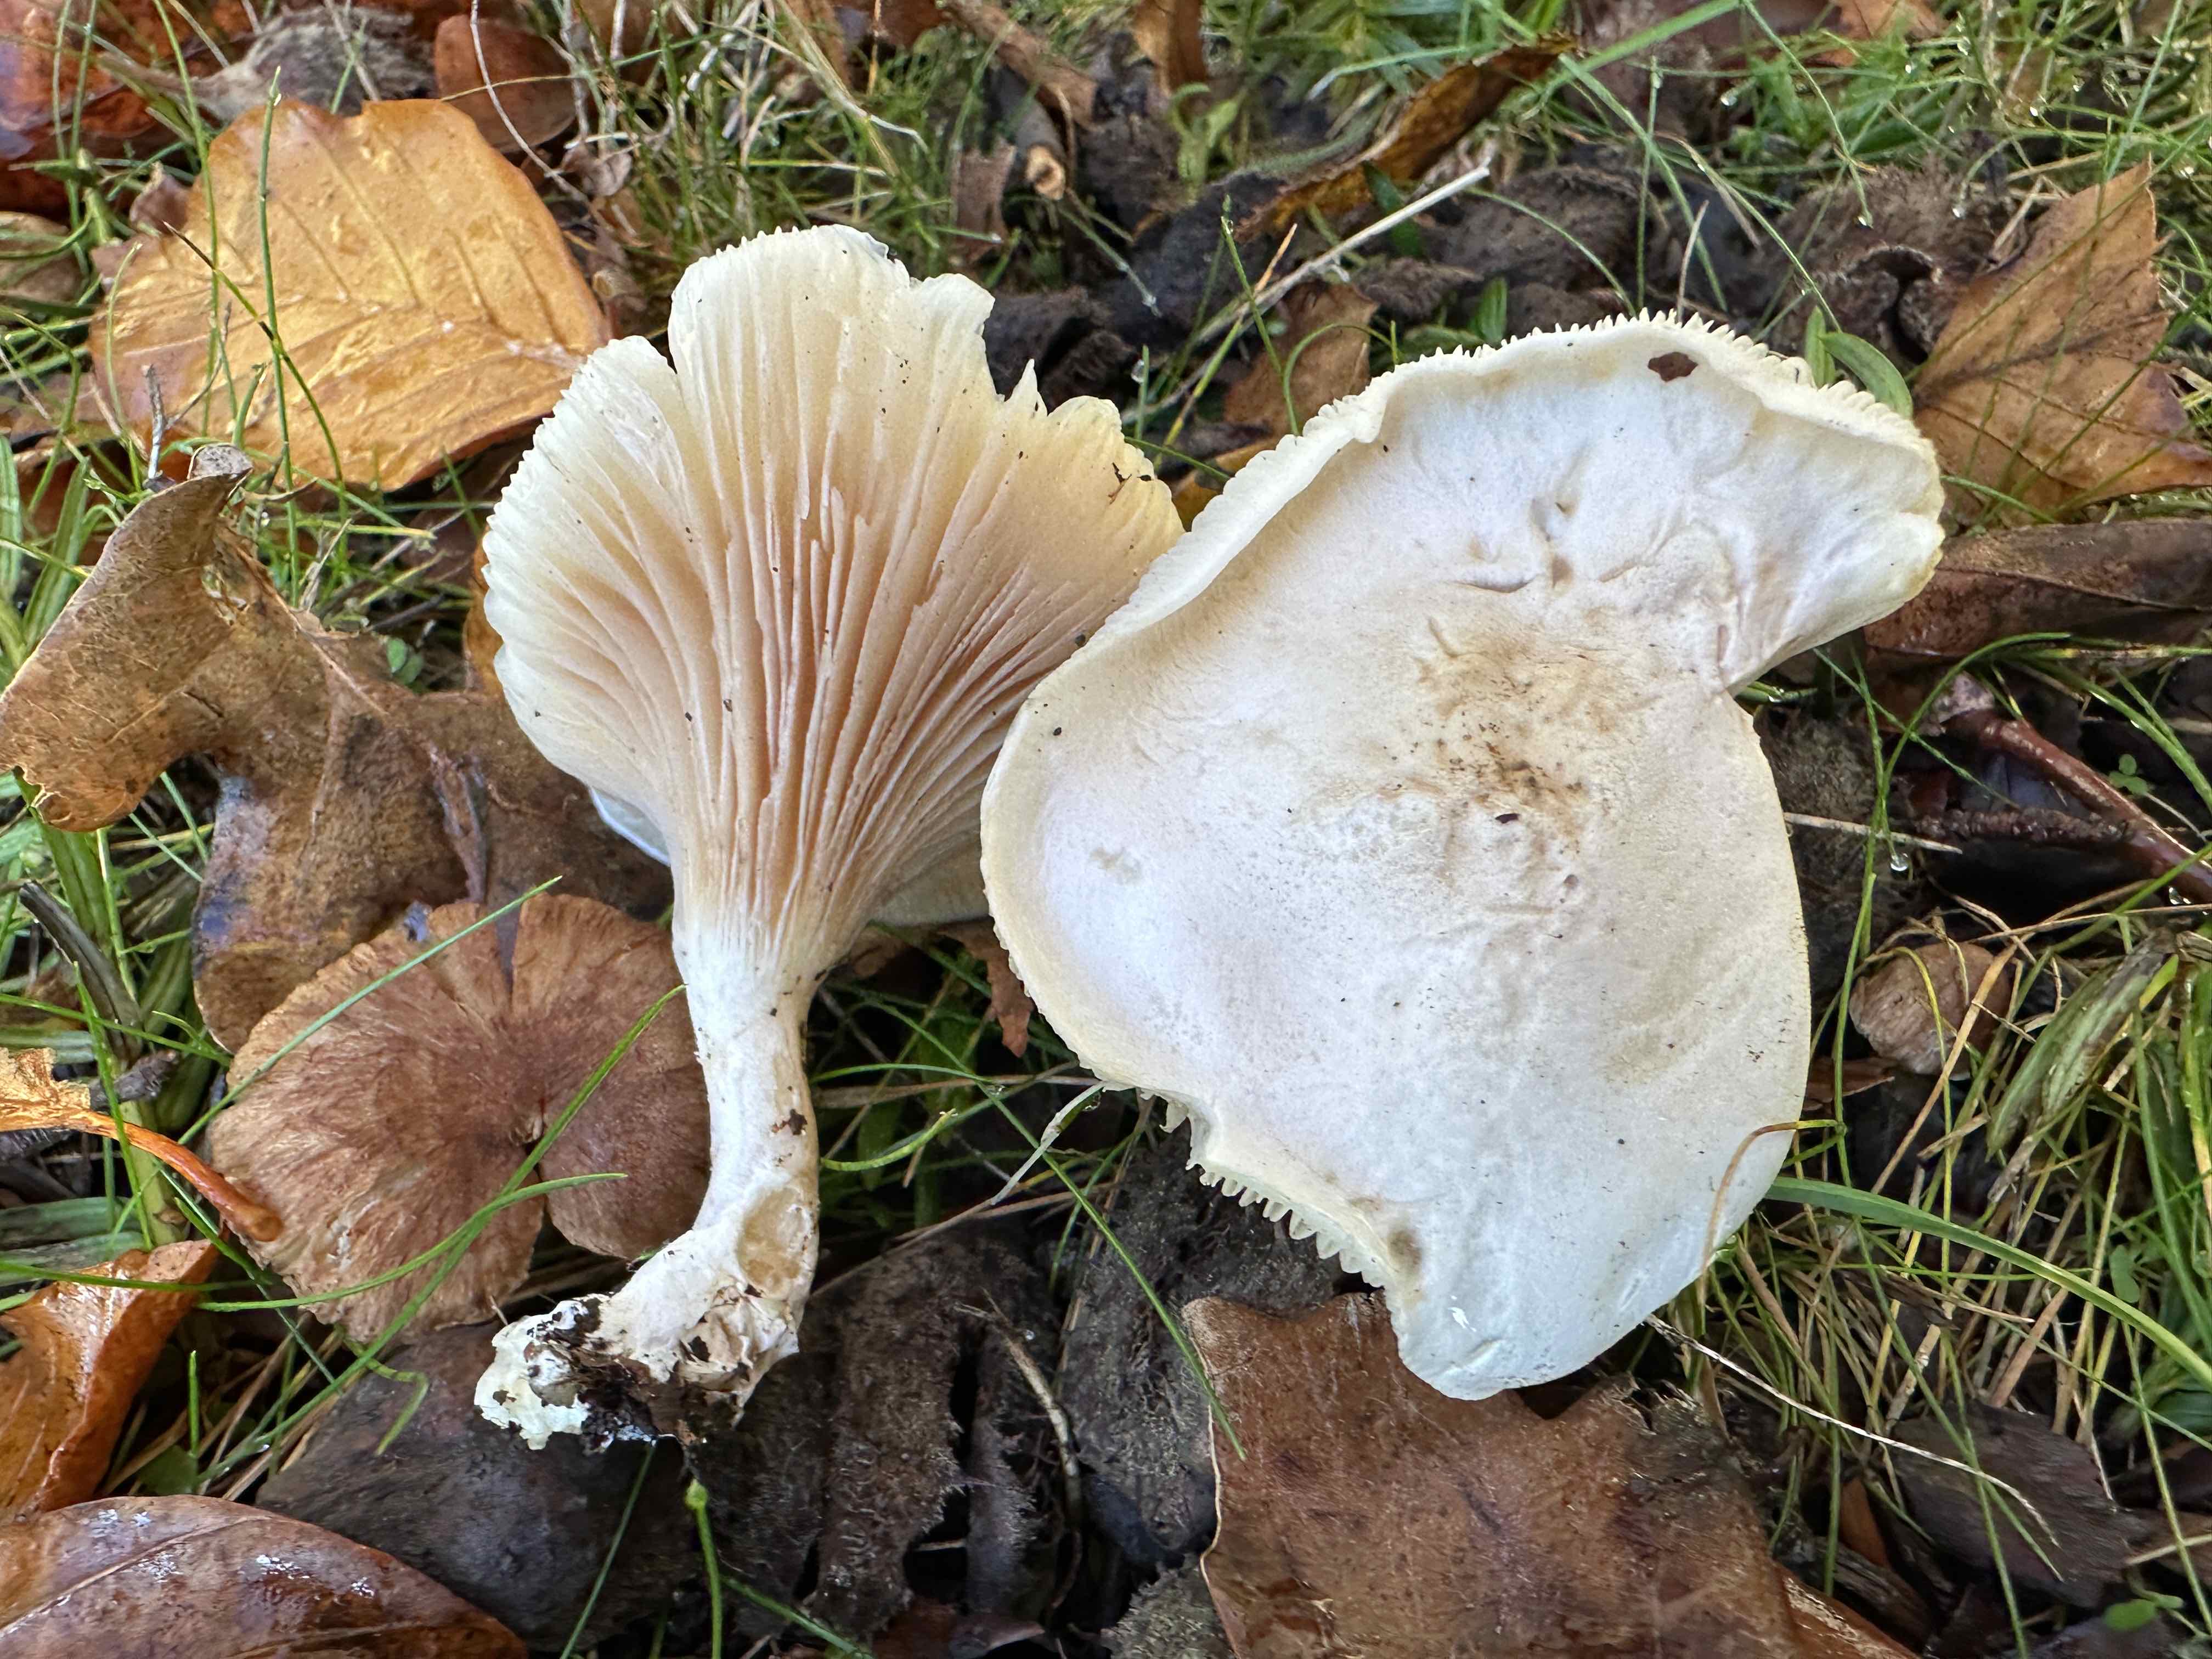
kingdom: Fungi
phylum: Basidiomycota
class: Agaricomycetes
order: Agaricales
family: Entolomataceae
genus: Clitopilus
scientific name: Clitopilus prunulus
